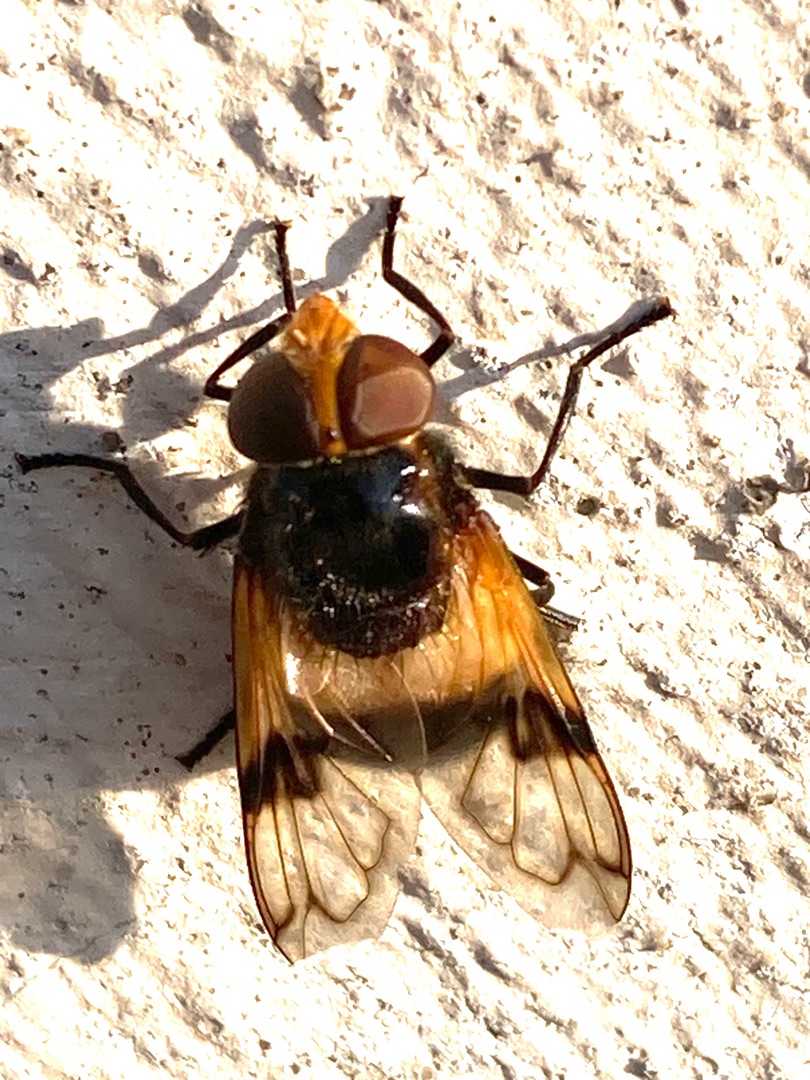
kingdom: Animalia
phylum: Arthropoda
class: Insecta
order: Diptera
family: Syrphidae
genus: Volucella
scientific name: Volucella pellucens
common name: Hvidbåndet humlesvirreflue
